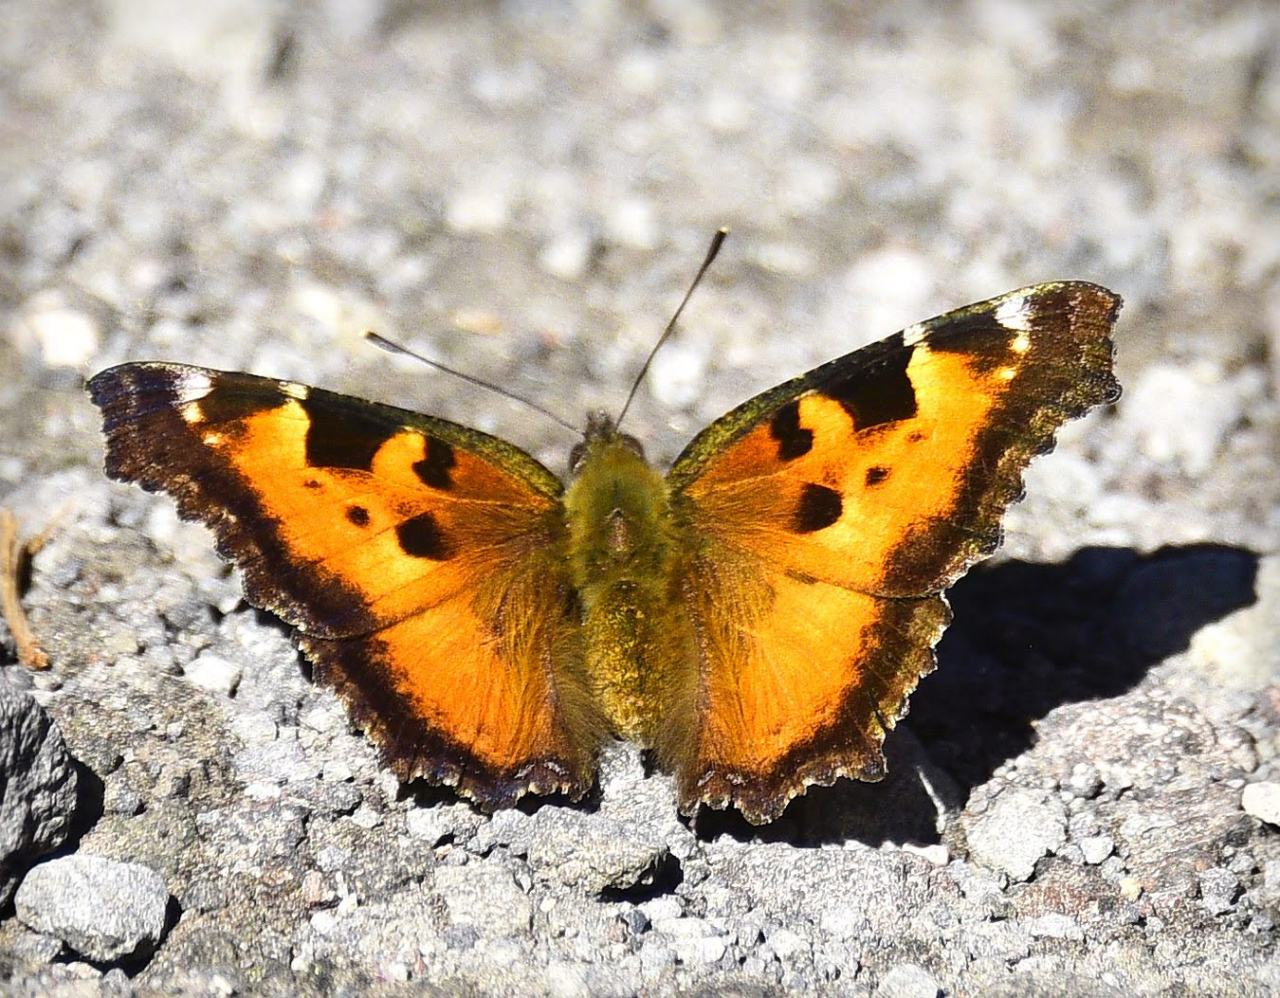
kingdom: Animalia
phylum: Arthropoda
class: Insecta
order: Lepidoptera
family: Nymphalidae
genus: Nymphalis
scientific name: Nymphalis californica
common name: California Tortoiseshell
